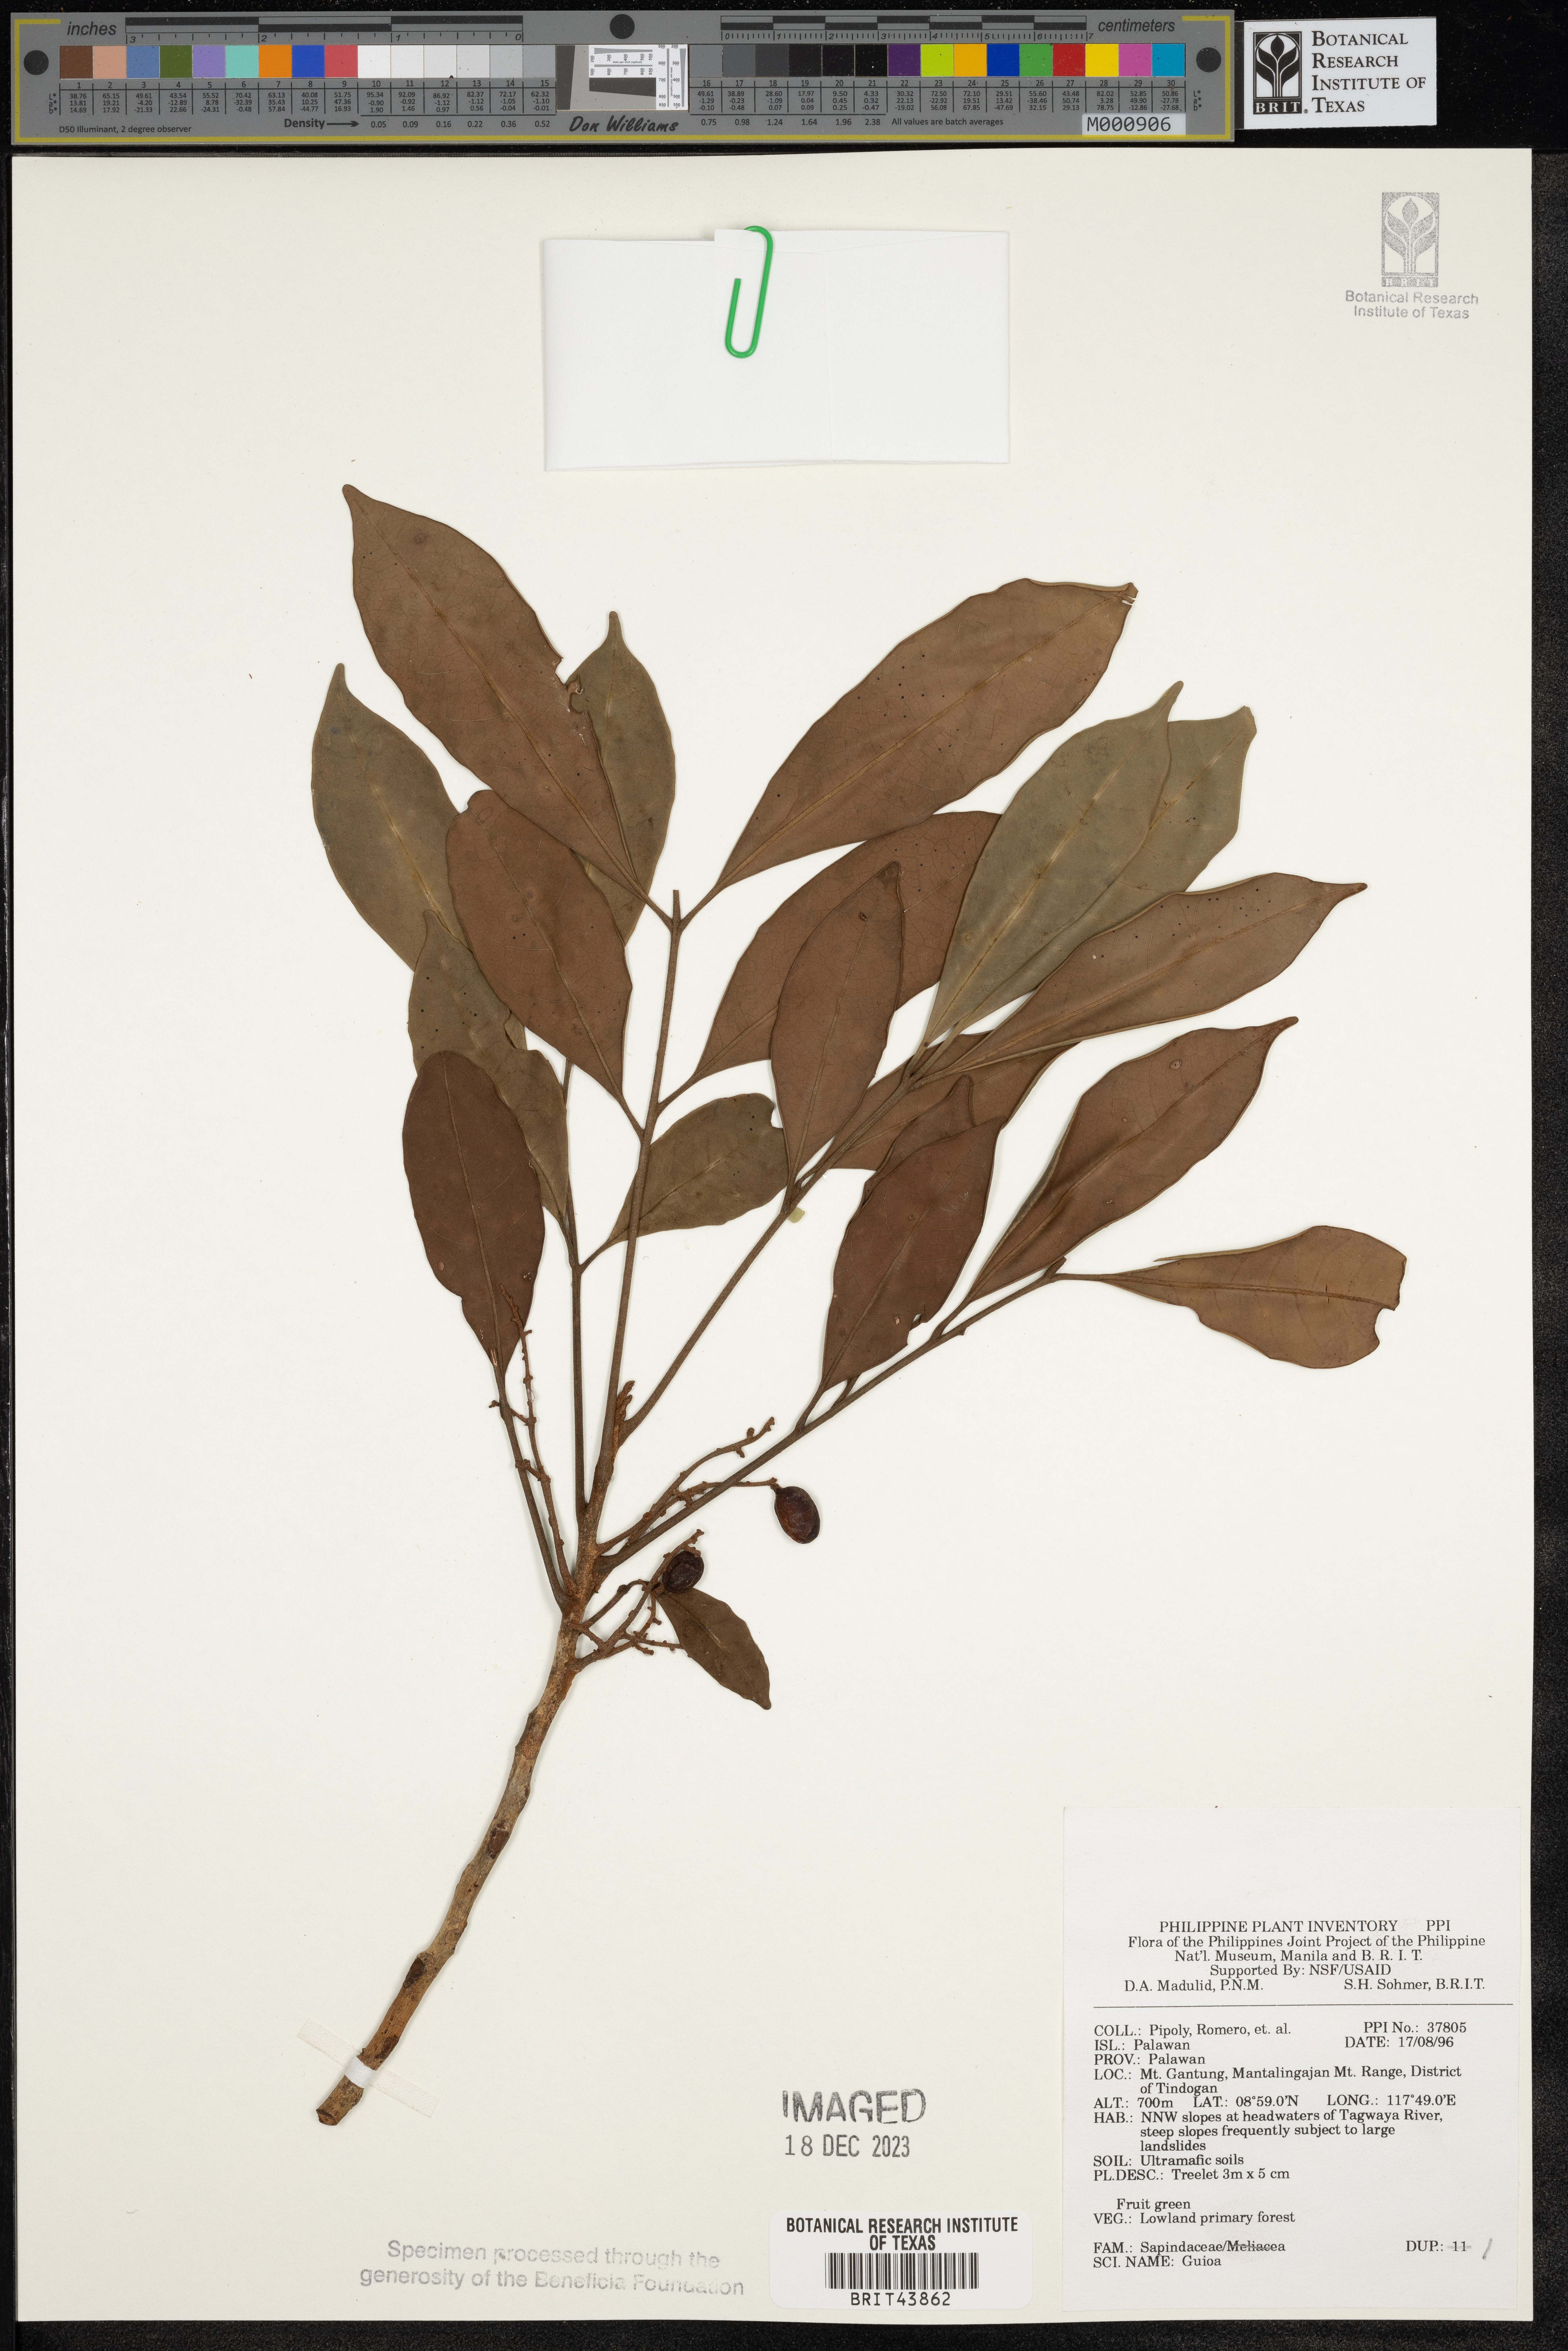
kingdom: Plantae
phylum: Tracheophyta
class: Magnoliopsida
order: Sapindales
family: Sapindaceae
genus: Guioa
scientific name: Guioa
